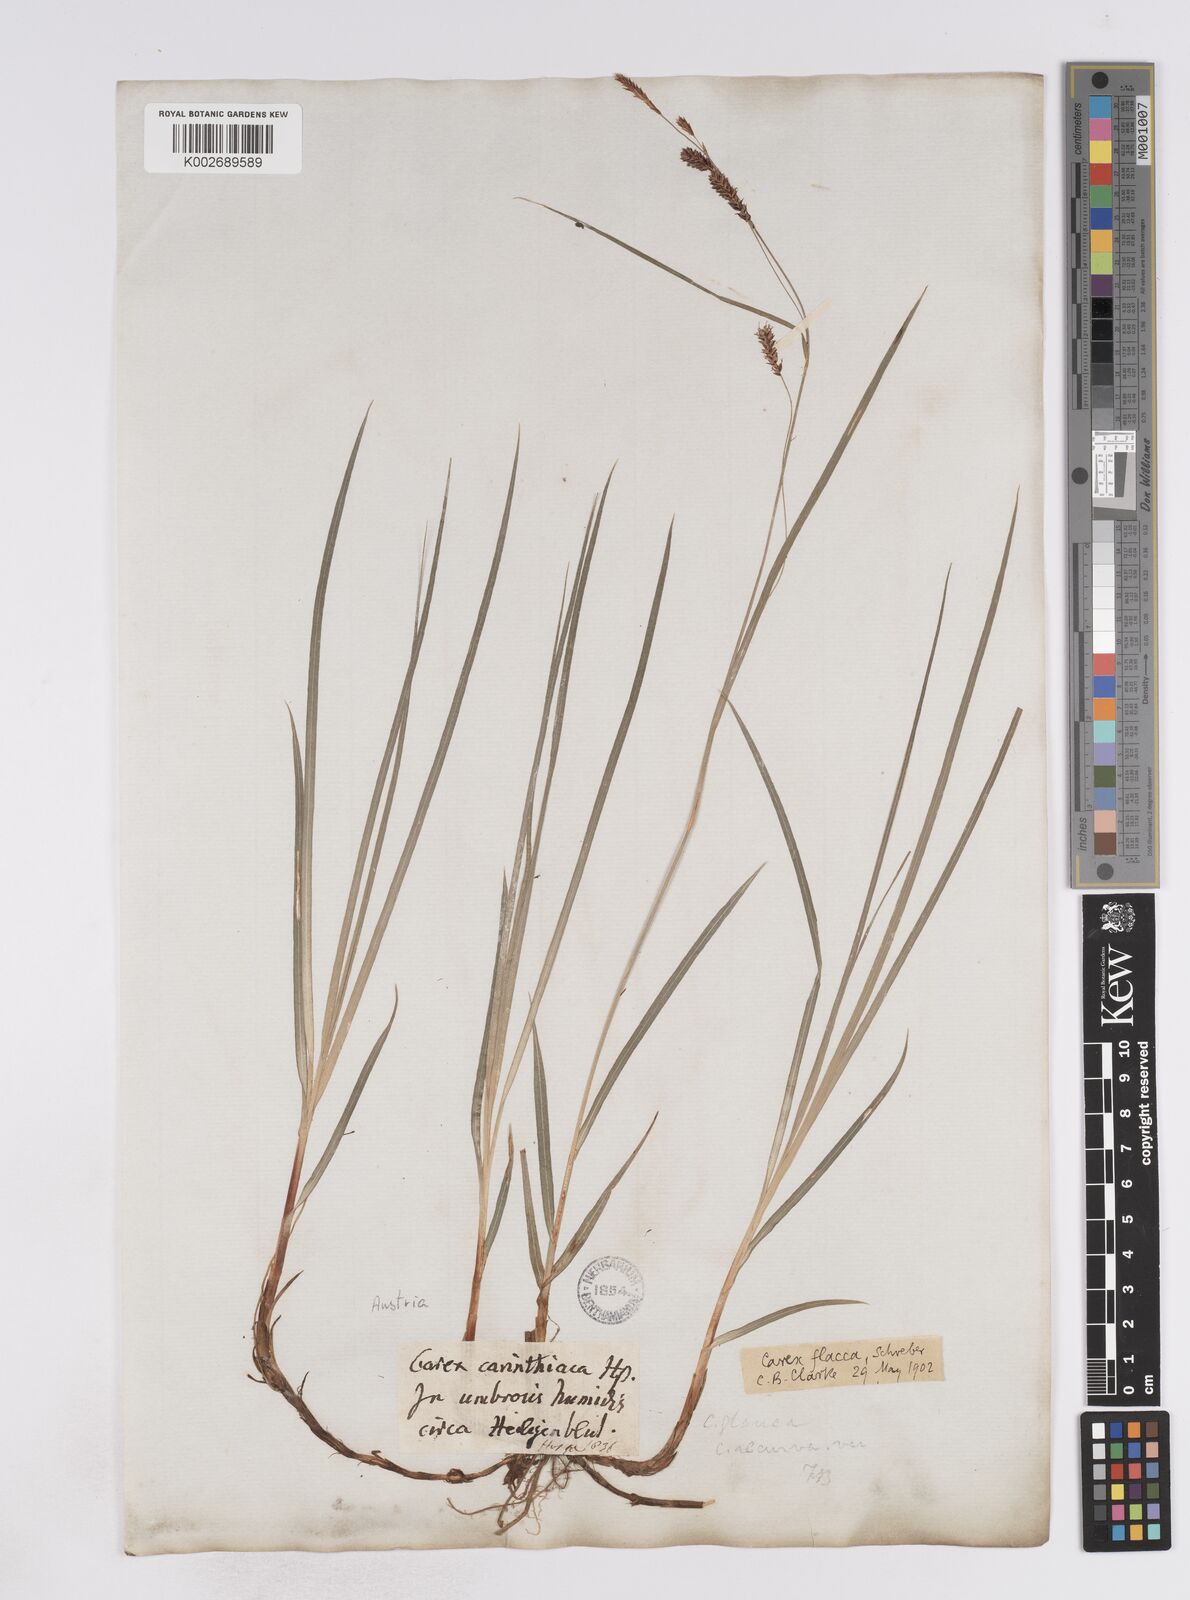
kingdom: Plantae
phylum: Tracheophyta
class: Liliopsida
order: Poales
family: Cyperaceae
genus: Carex
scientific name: Carex flacca
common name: Glaucous sedge
